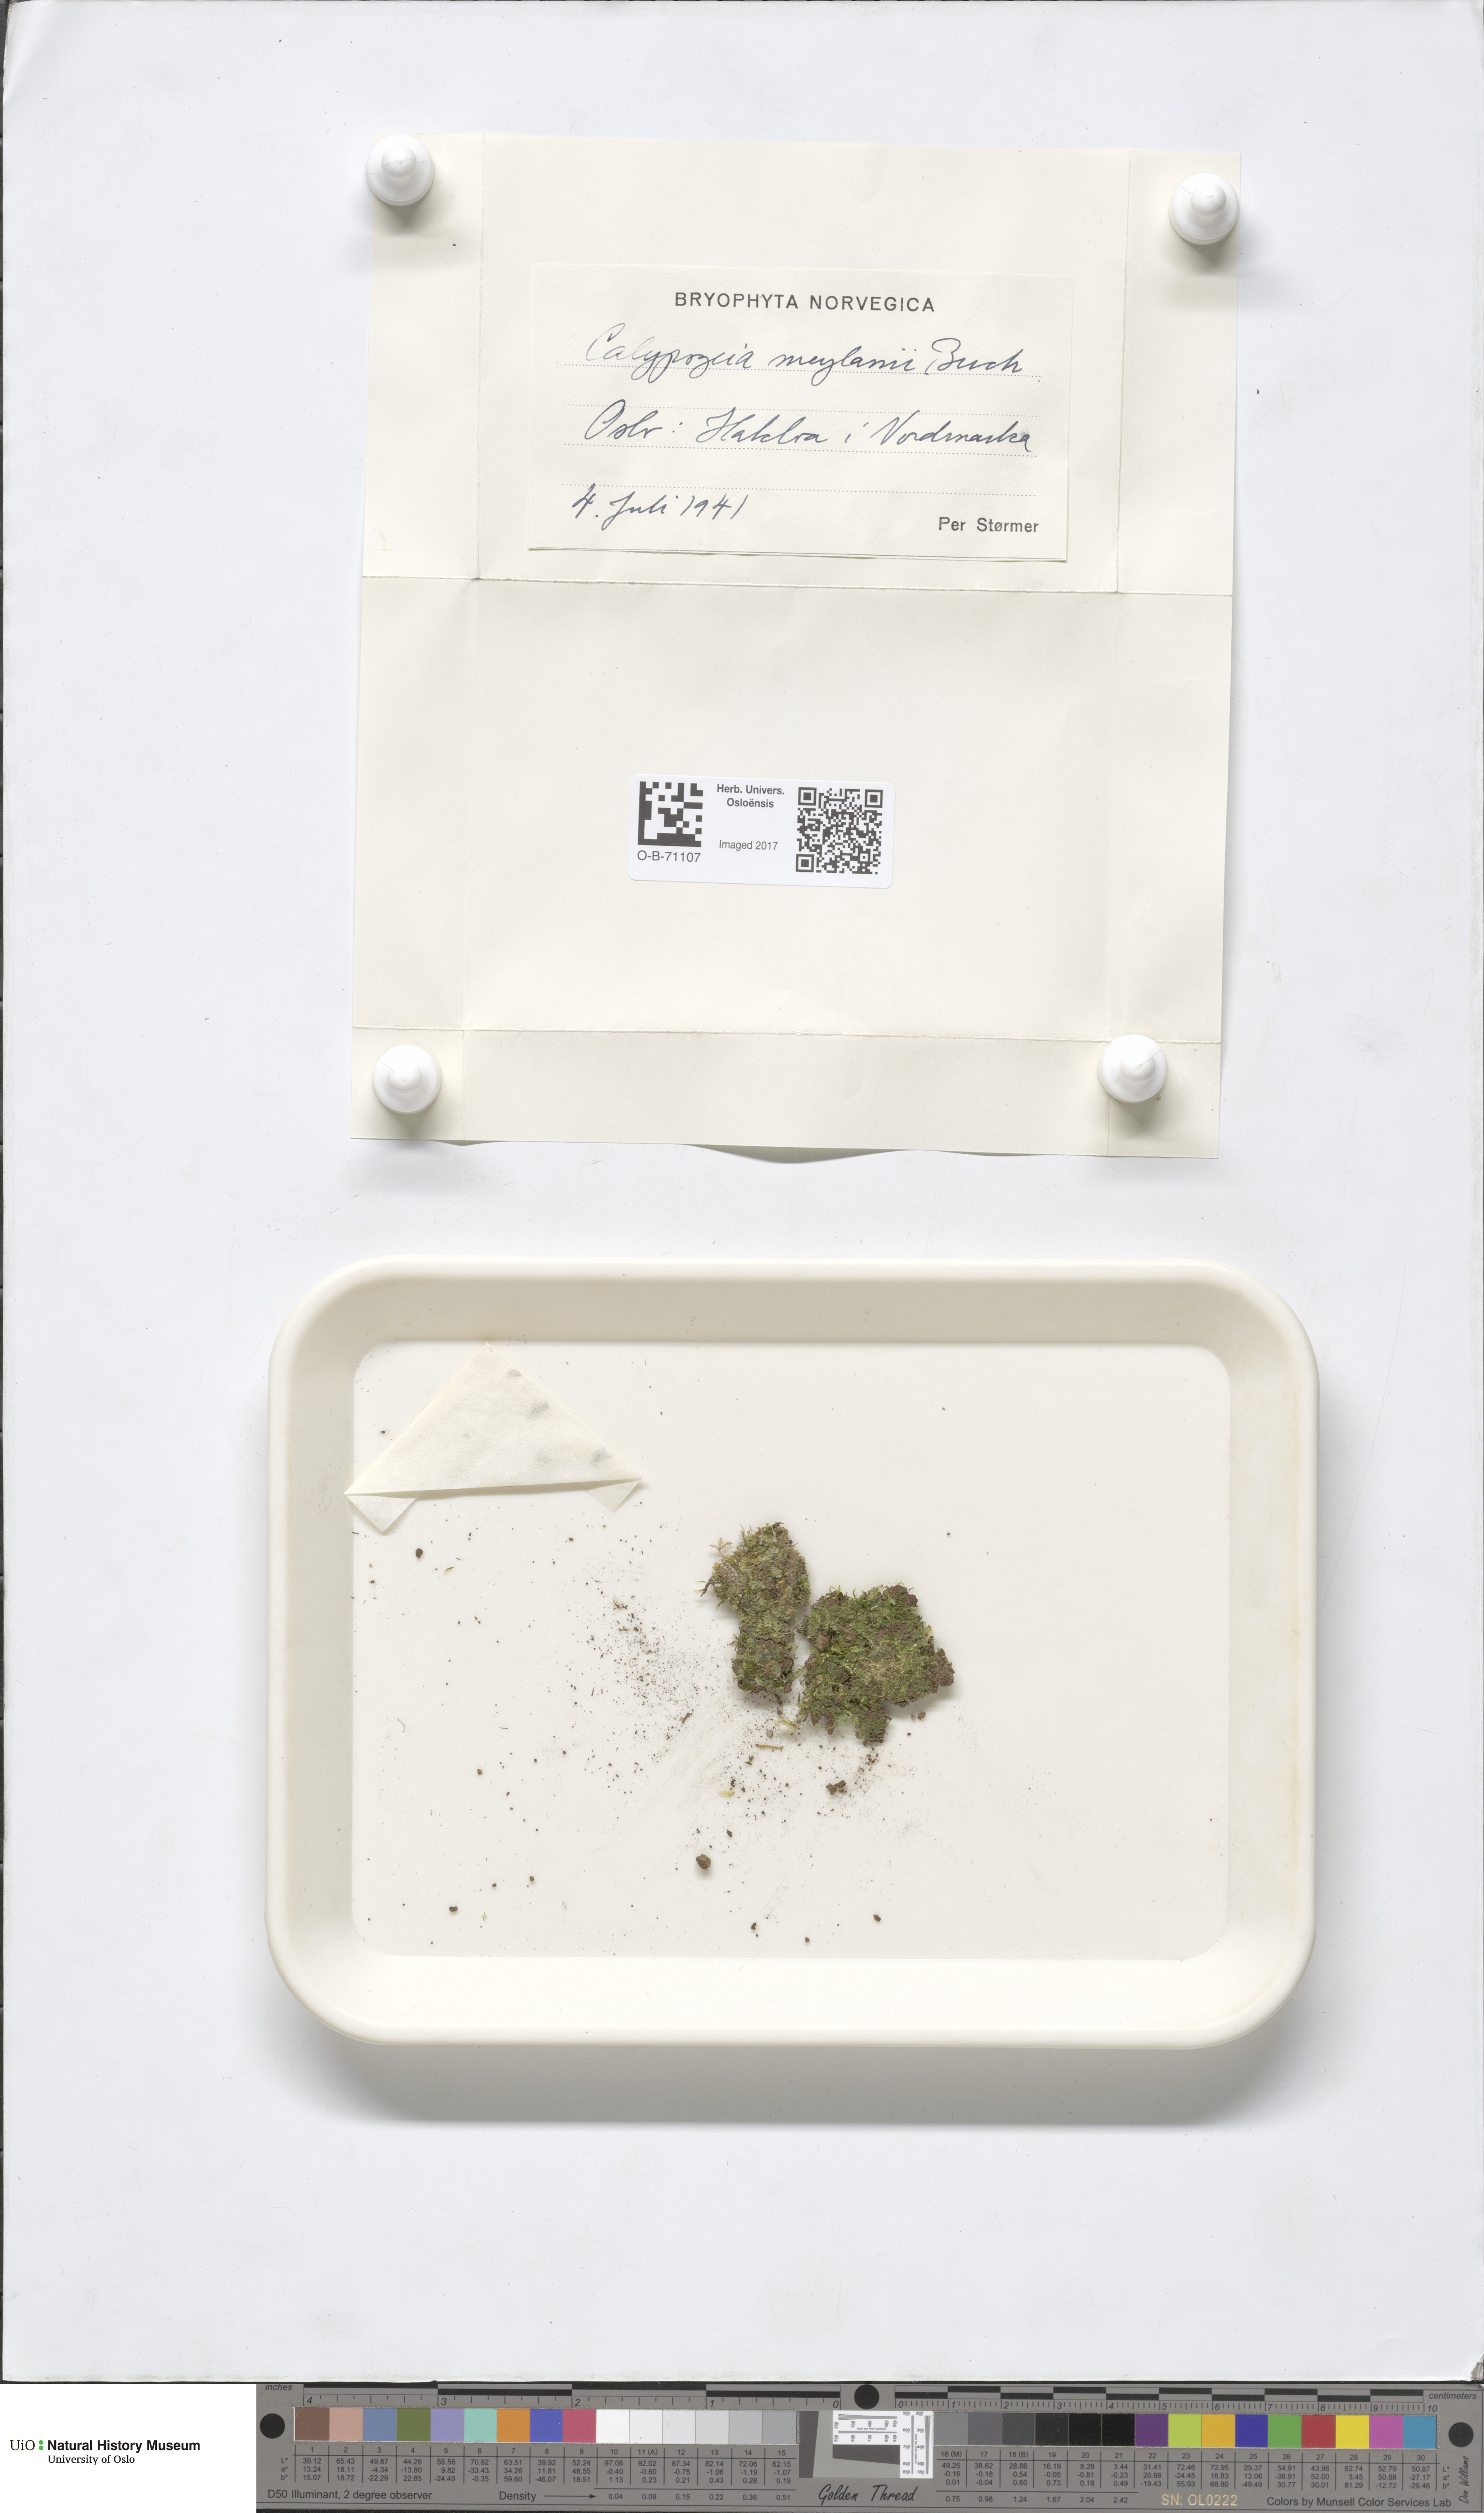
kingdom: Plantae
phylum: Marchantiophyta
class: Jungermanniopsida
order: Jungermanniales
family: Calypogeiaceae
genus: Calypogeia
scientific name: Calypogeia integristipula
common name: Meylan s pouchwort
